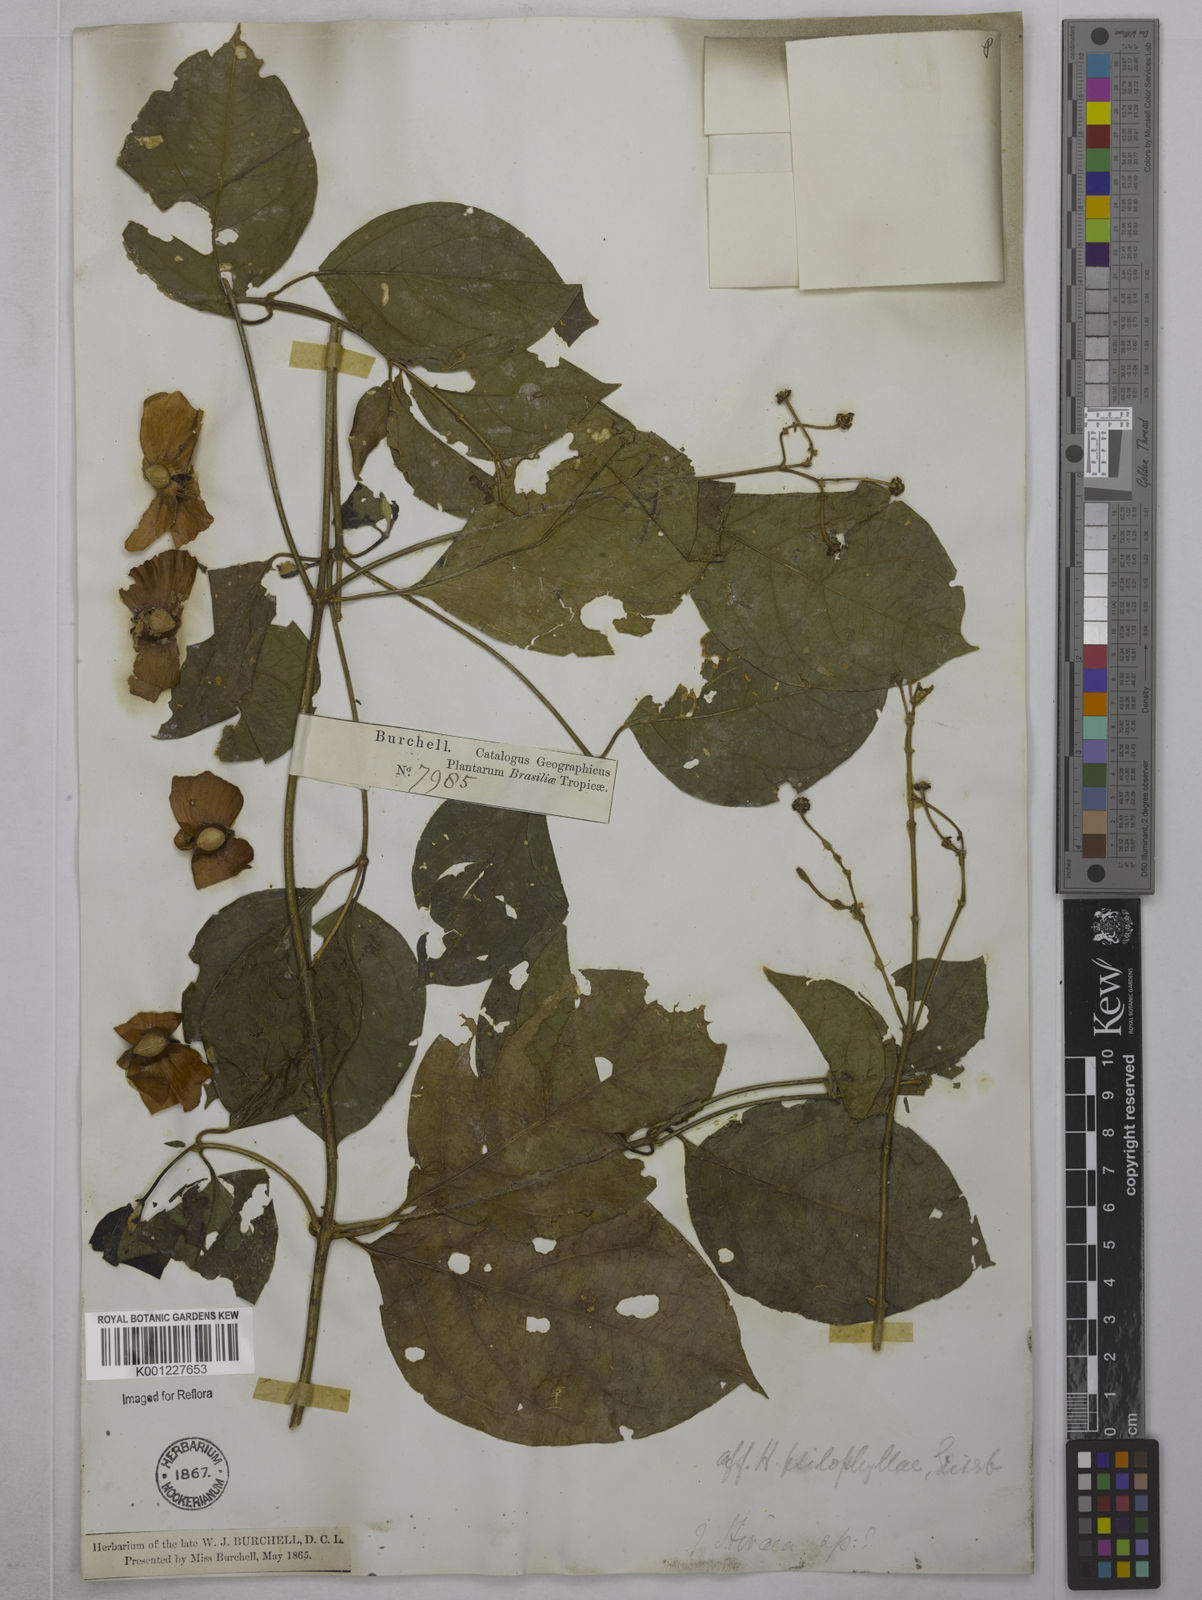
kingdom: Plantae
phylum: Tracheophyta
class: Magnoliopsida
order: Malpighiales
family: Malpighiaceae
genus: Callaeum
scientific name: Callaeum psilophyllum
